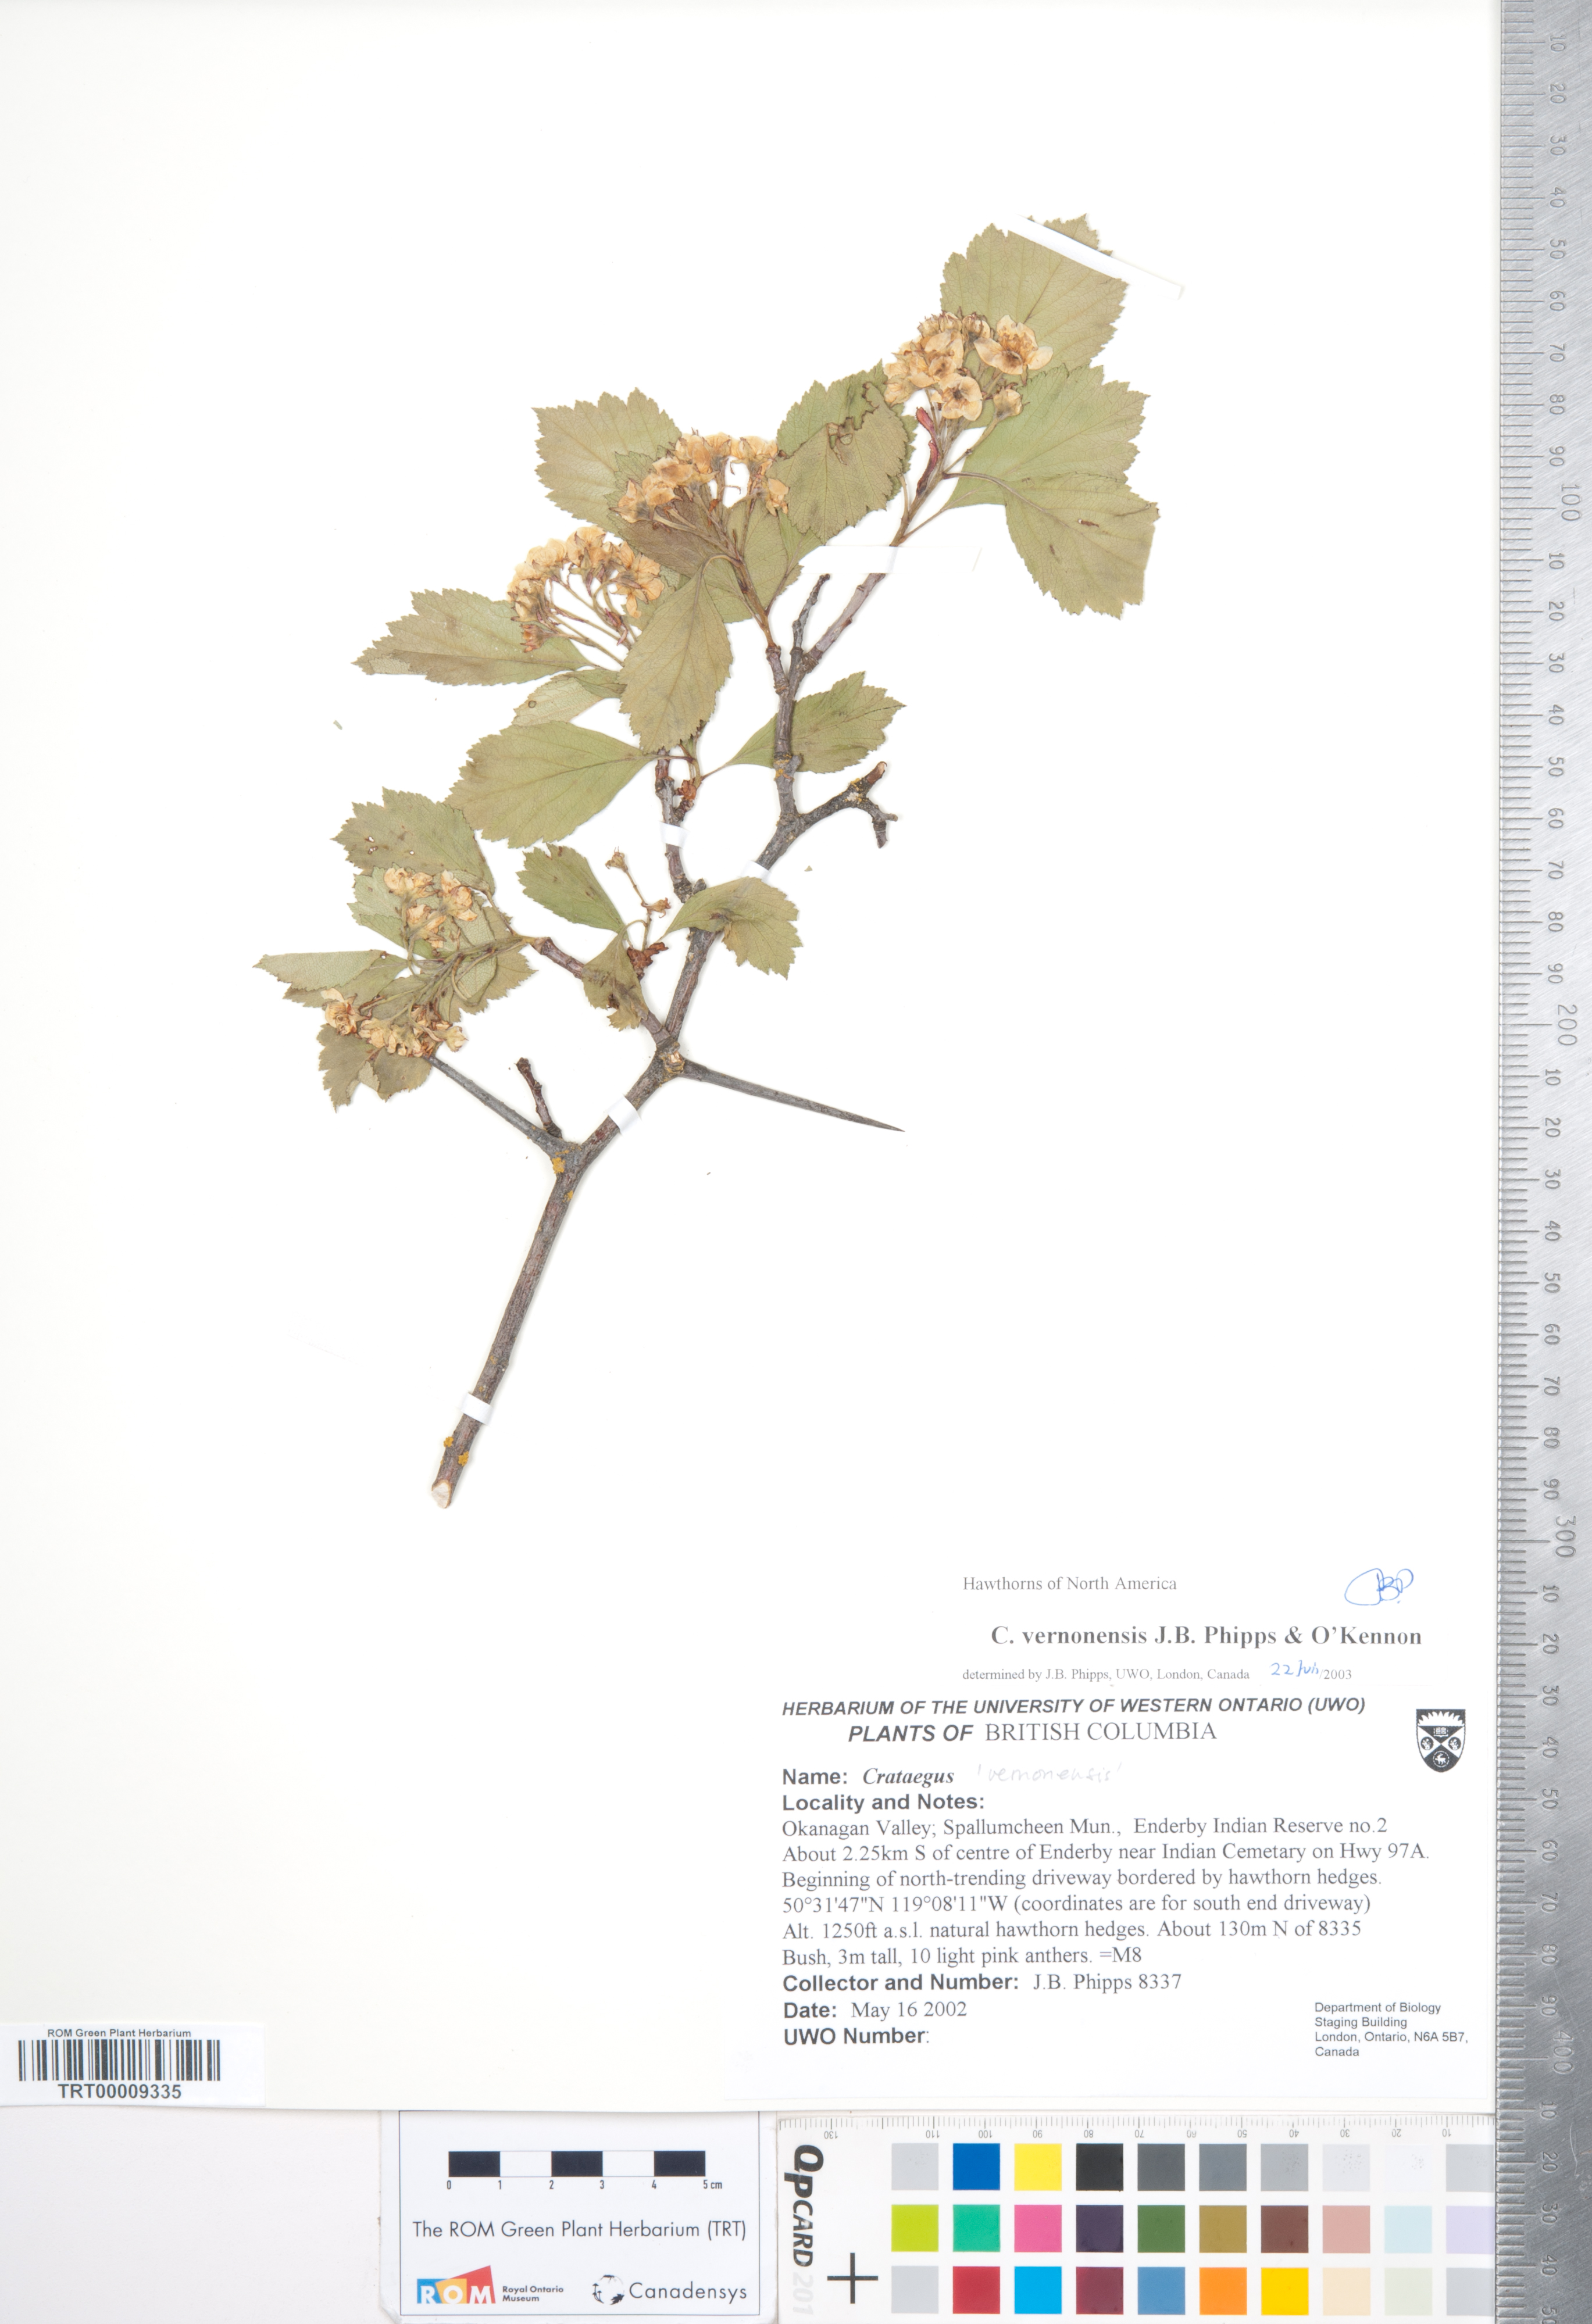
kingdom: Plantae
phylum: Tracheophyta
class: Magnoliopsida
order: Rosales
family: Rosaceae
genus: Crataegus
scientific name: Crataegus
